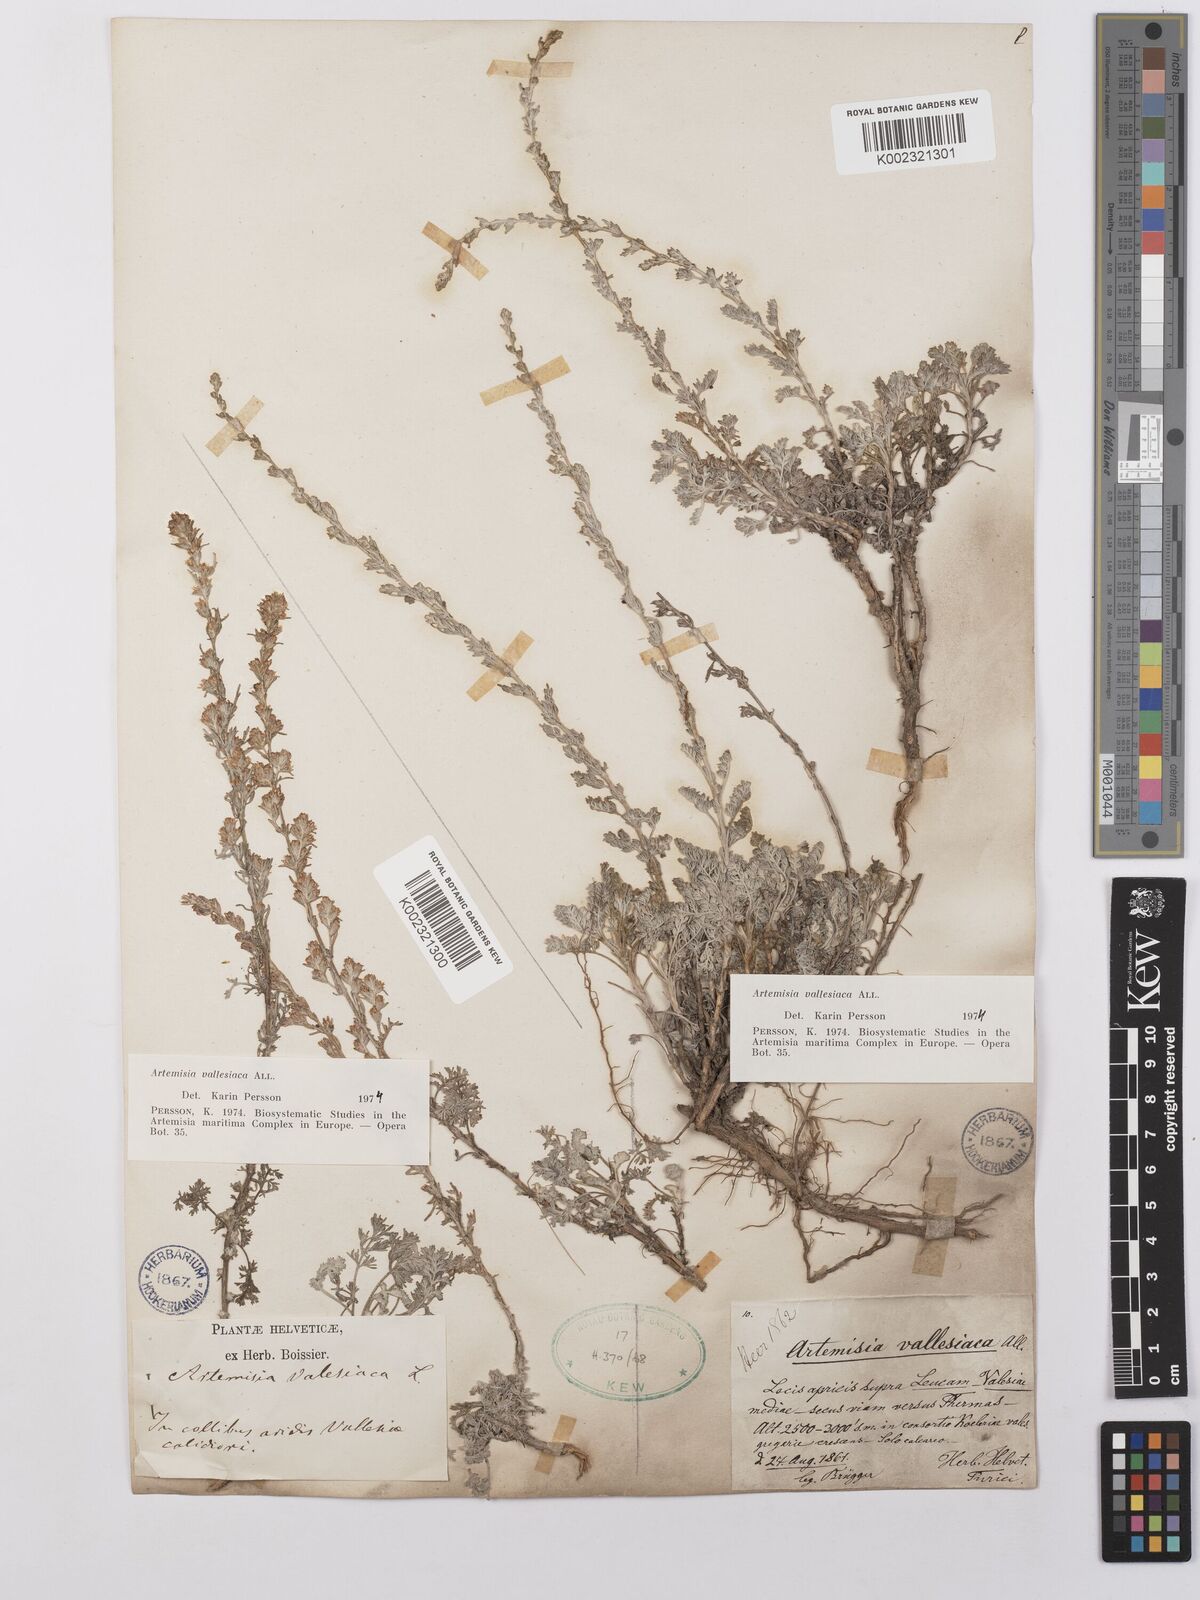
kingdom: Plantae
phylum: Tracheophyta
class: Magnoliopsida
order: Asterales
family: Asteraceae
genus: Artemisia
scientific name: Artemisia vallesiaca
